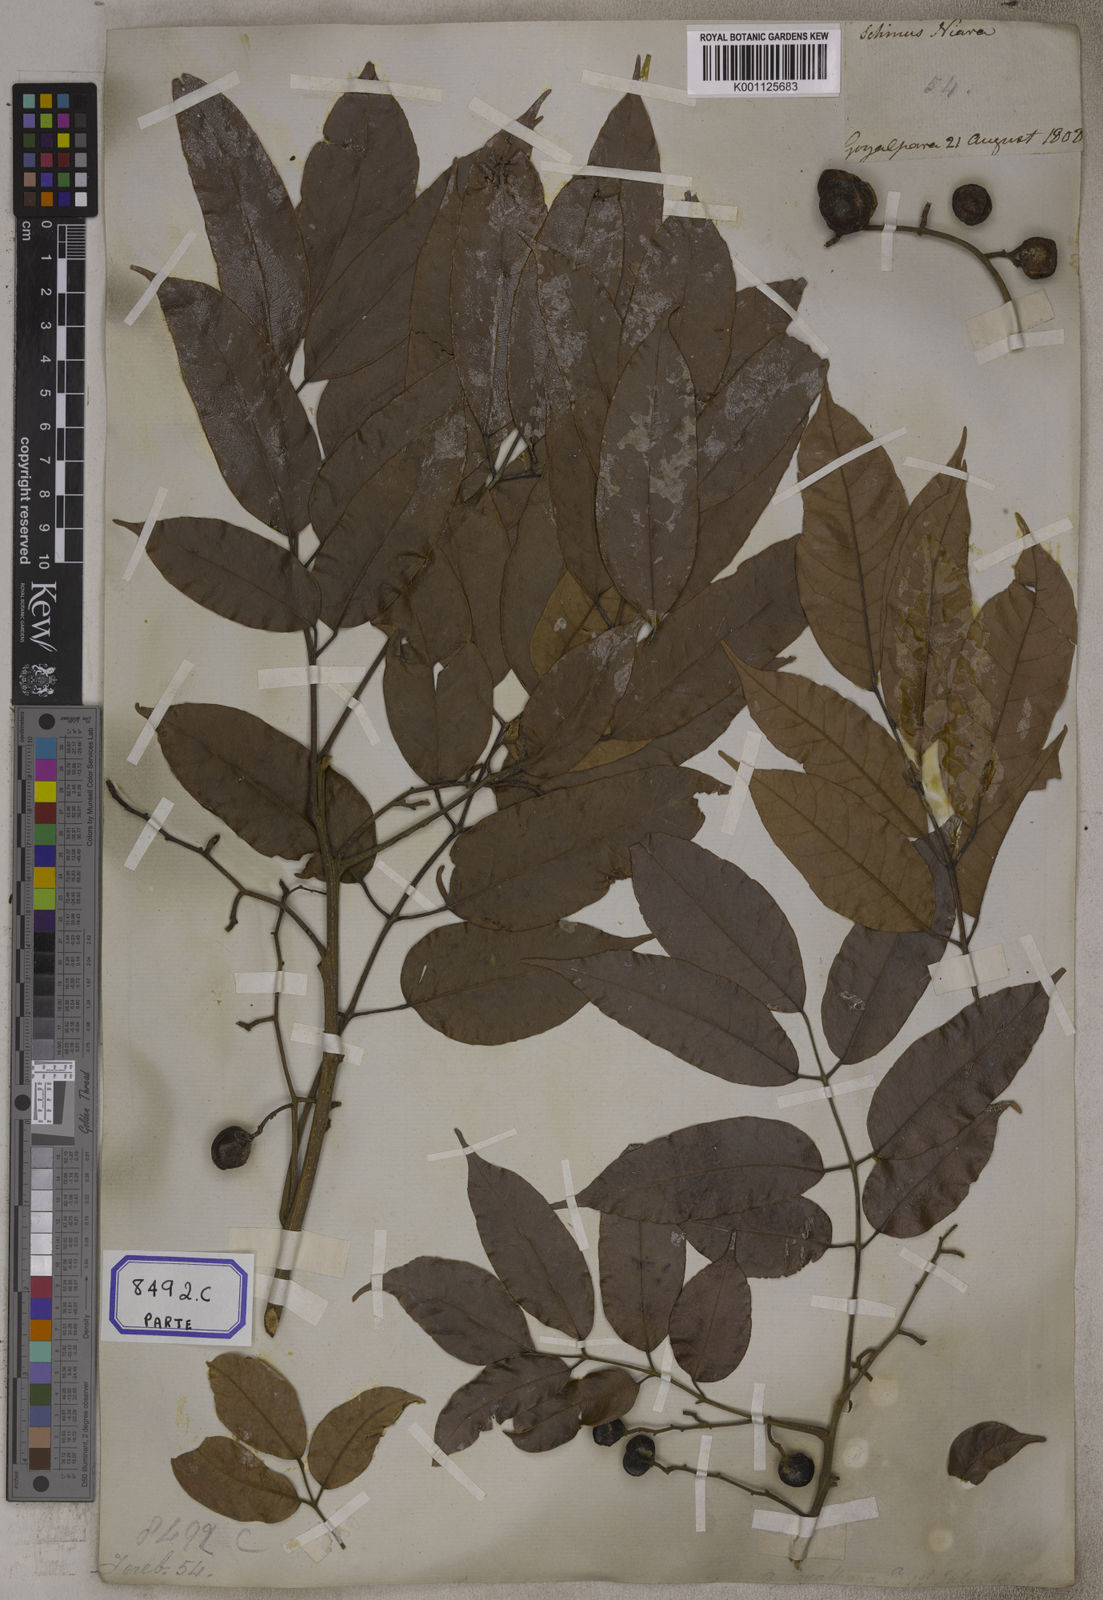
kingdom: Plantae
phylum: Tracheophyta
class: Magnoliopsida
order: Sapindales
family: Burseraceae
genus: Protium
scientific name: Protium serratum
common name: Murtenga
